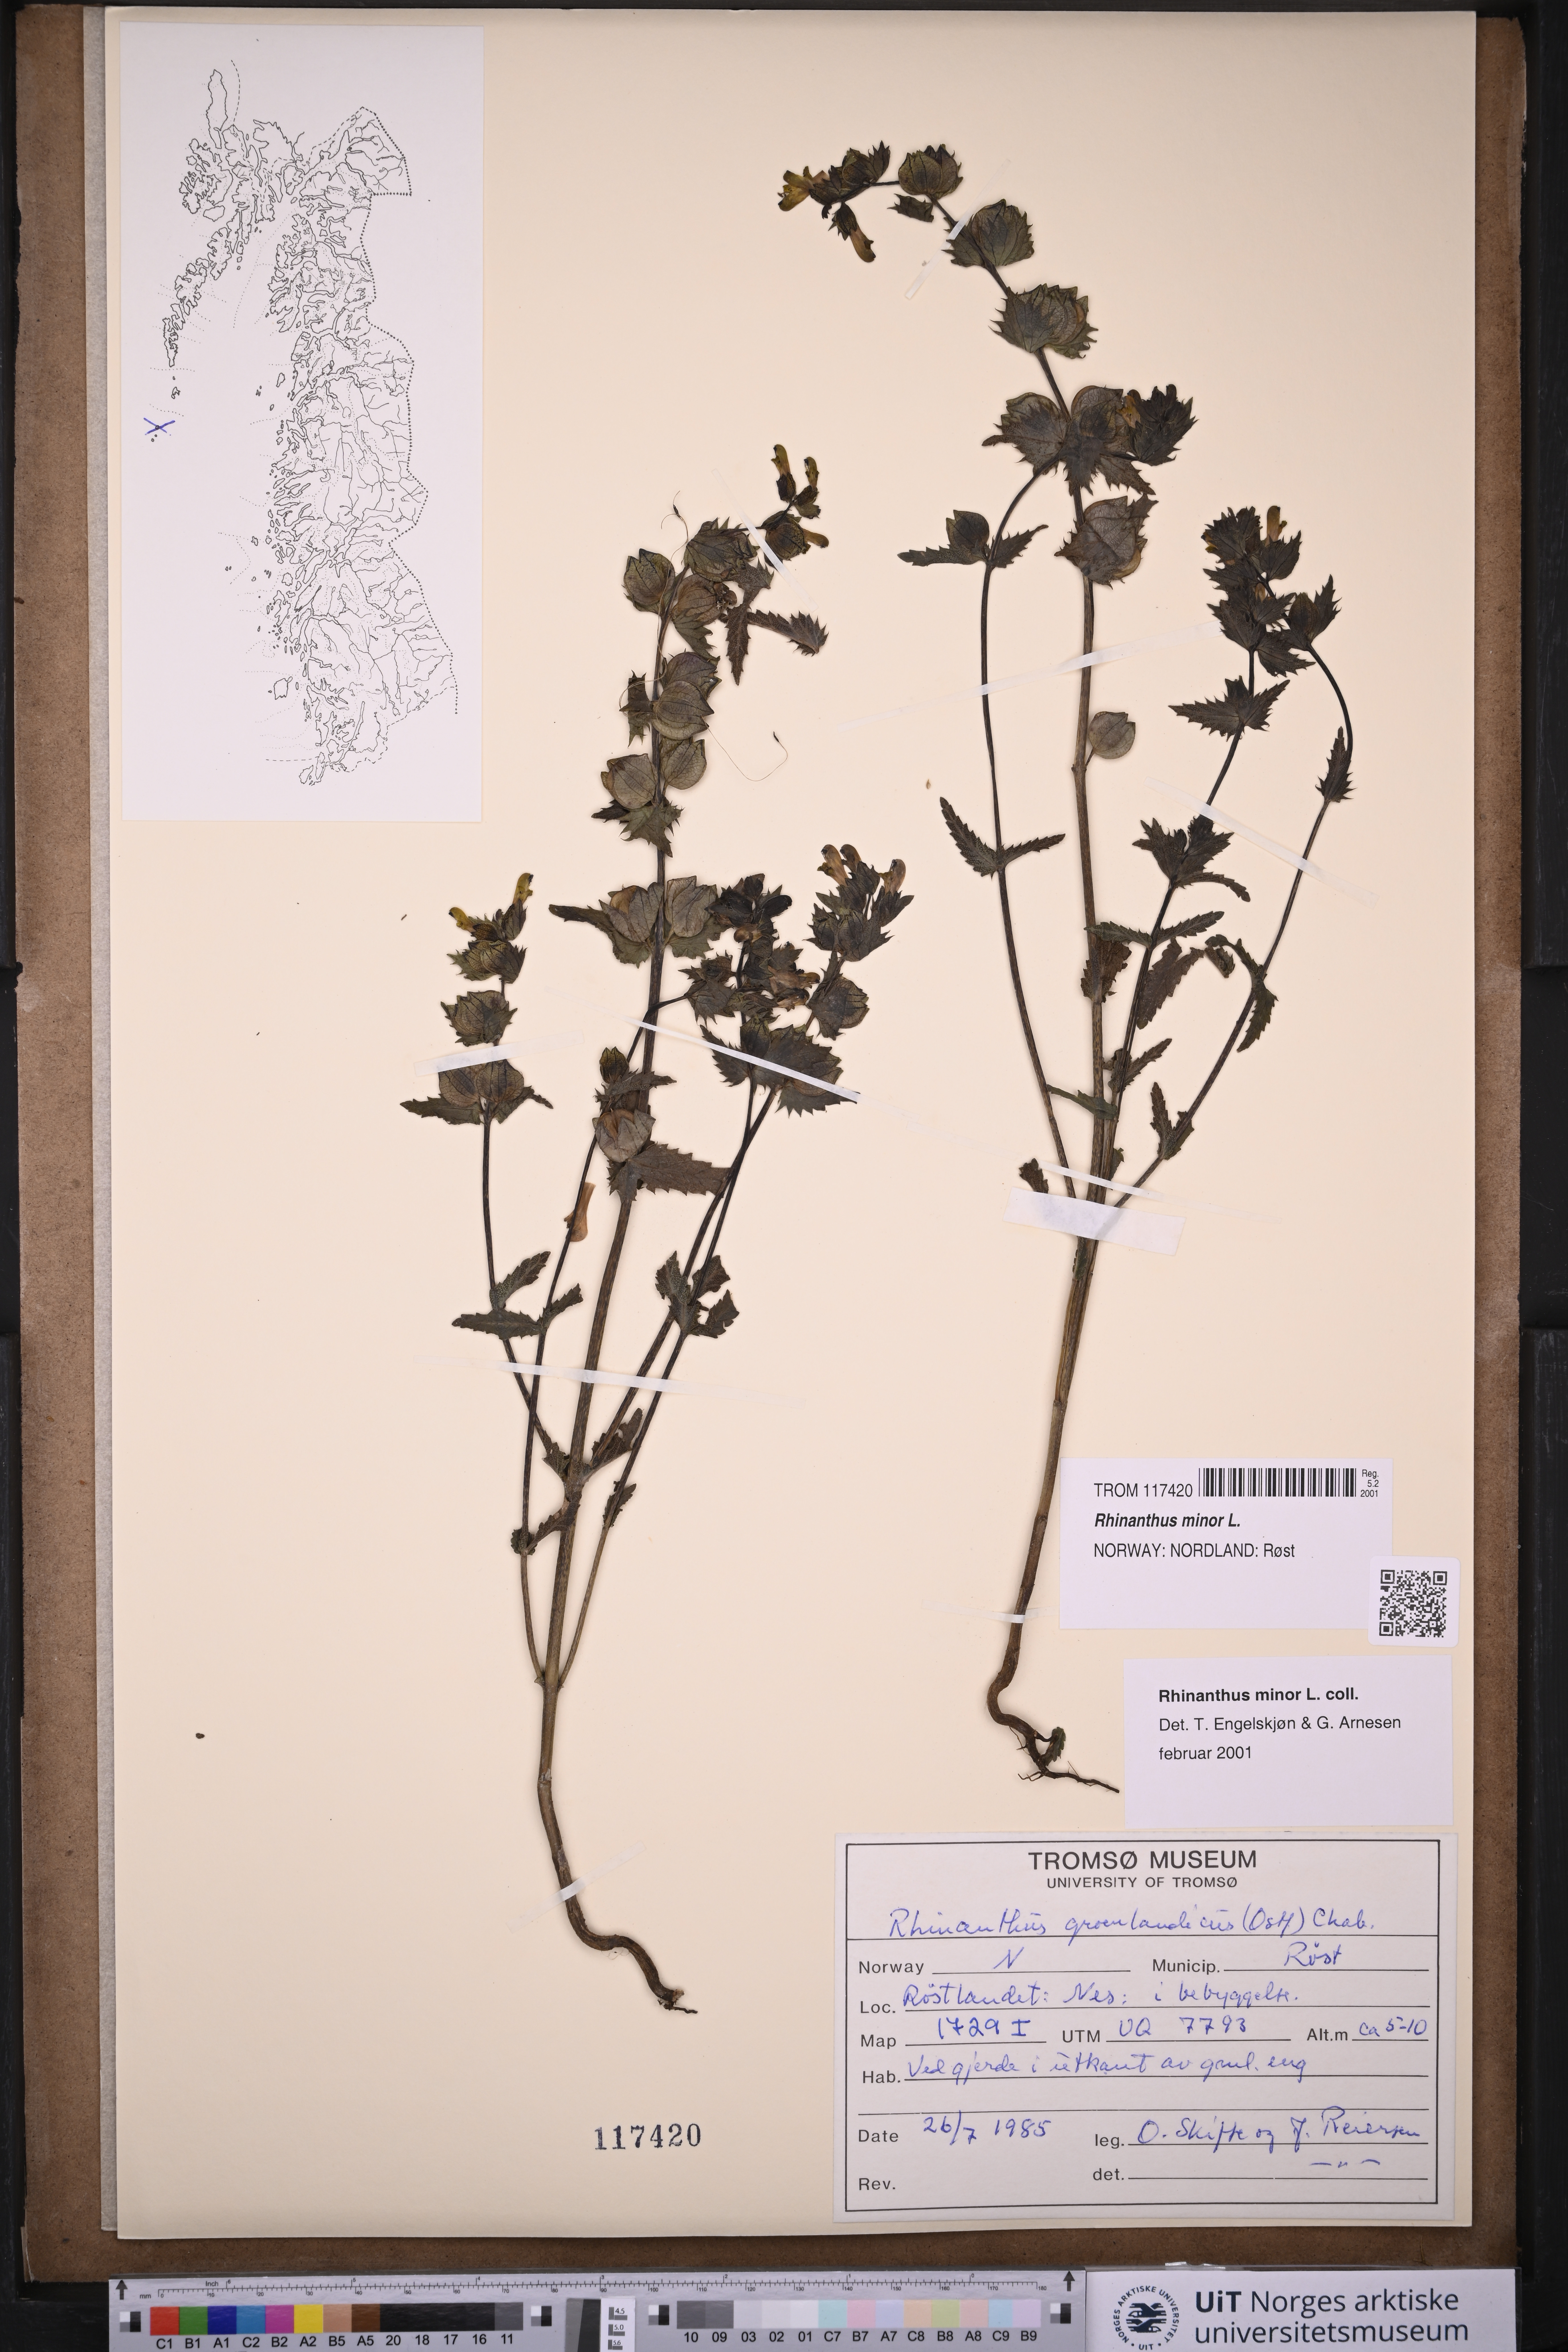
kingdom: Plantae
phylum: Tracheophyta
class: Magnoliopsida
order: Lamiales
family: Orobanchaceae
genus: Rhinanthus
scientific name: Rhinanthus minor
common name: Yellow-rattle
